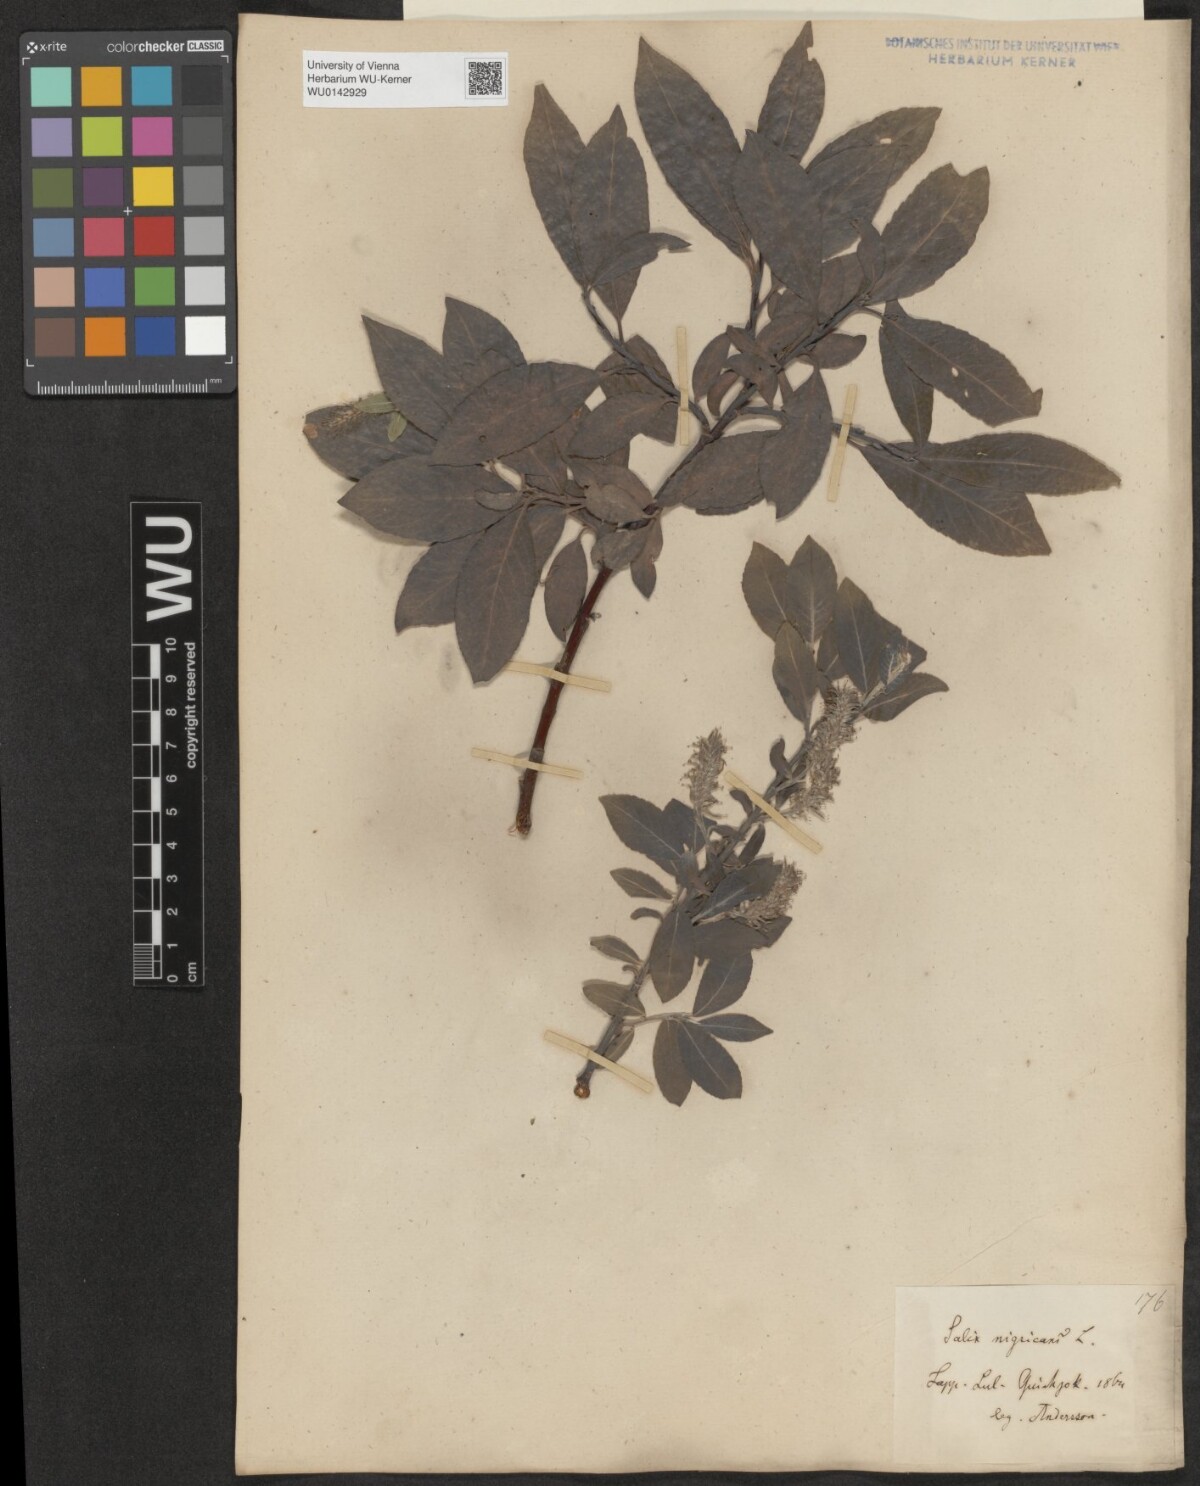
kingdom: Plantae
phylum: Tracheophyta
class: Magnoliopsida
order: Malpighiales
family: Salicaceae
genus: Salix
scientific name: Salix myrsinifolia
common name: Dark-leaved willow
